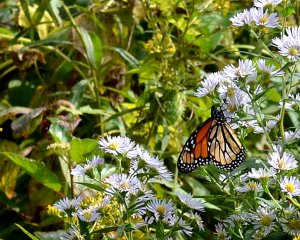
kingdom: Animalia
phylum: Arthropoda
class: Insecta
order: Lepidoptera
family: Nymphalidae
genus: Danaus
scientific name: Danaus plexippus
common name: Monarch
